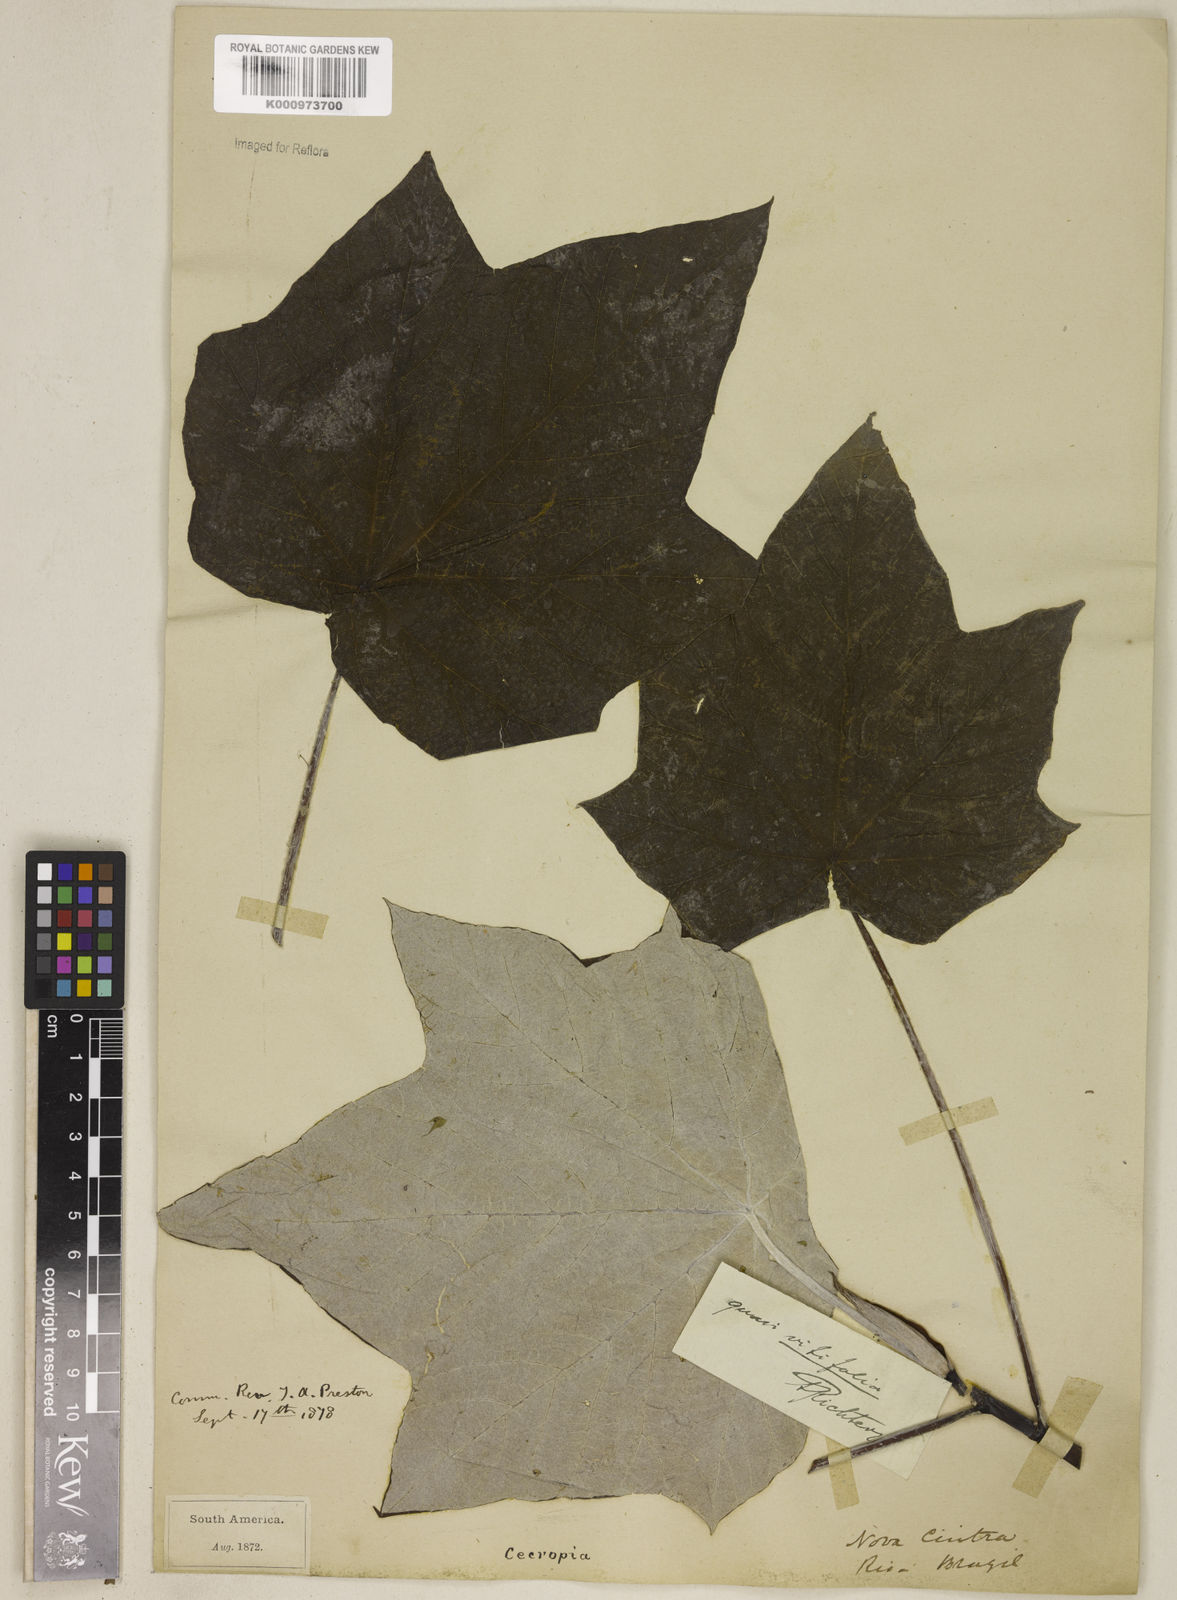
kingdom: Plantae
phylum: Tracheophyta
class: Magnoliopsida
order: Rosales
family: Urticaceae
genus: Cecropia
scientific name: Cecropia
